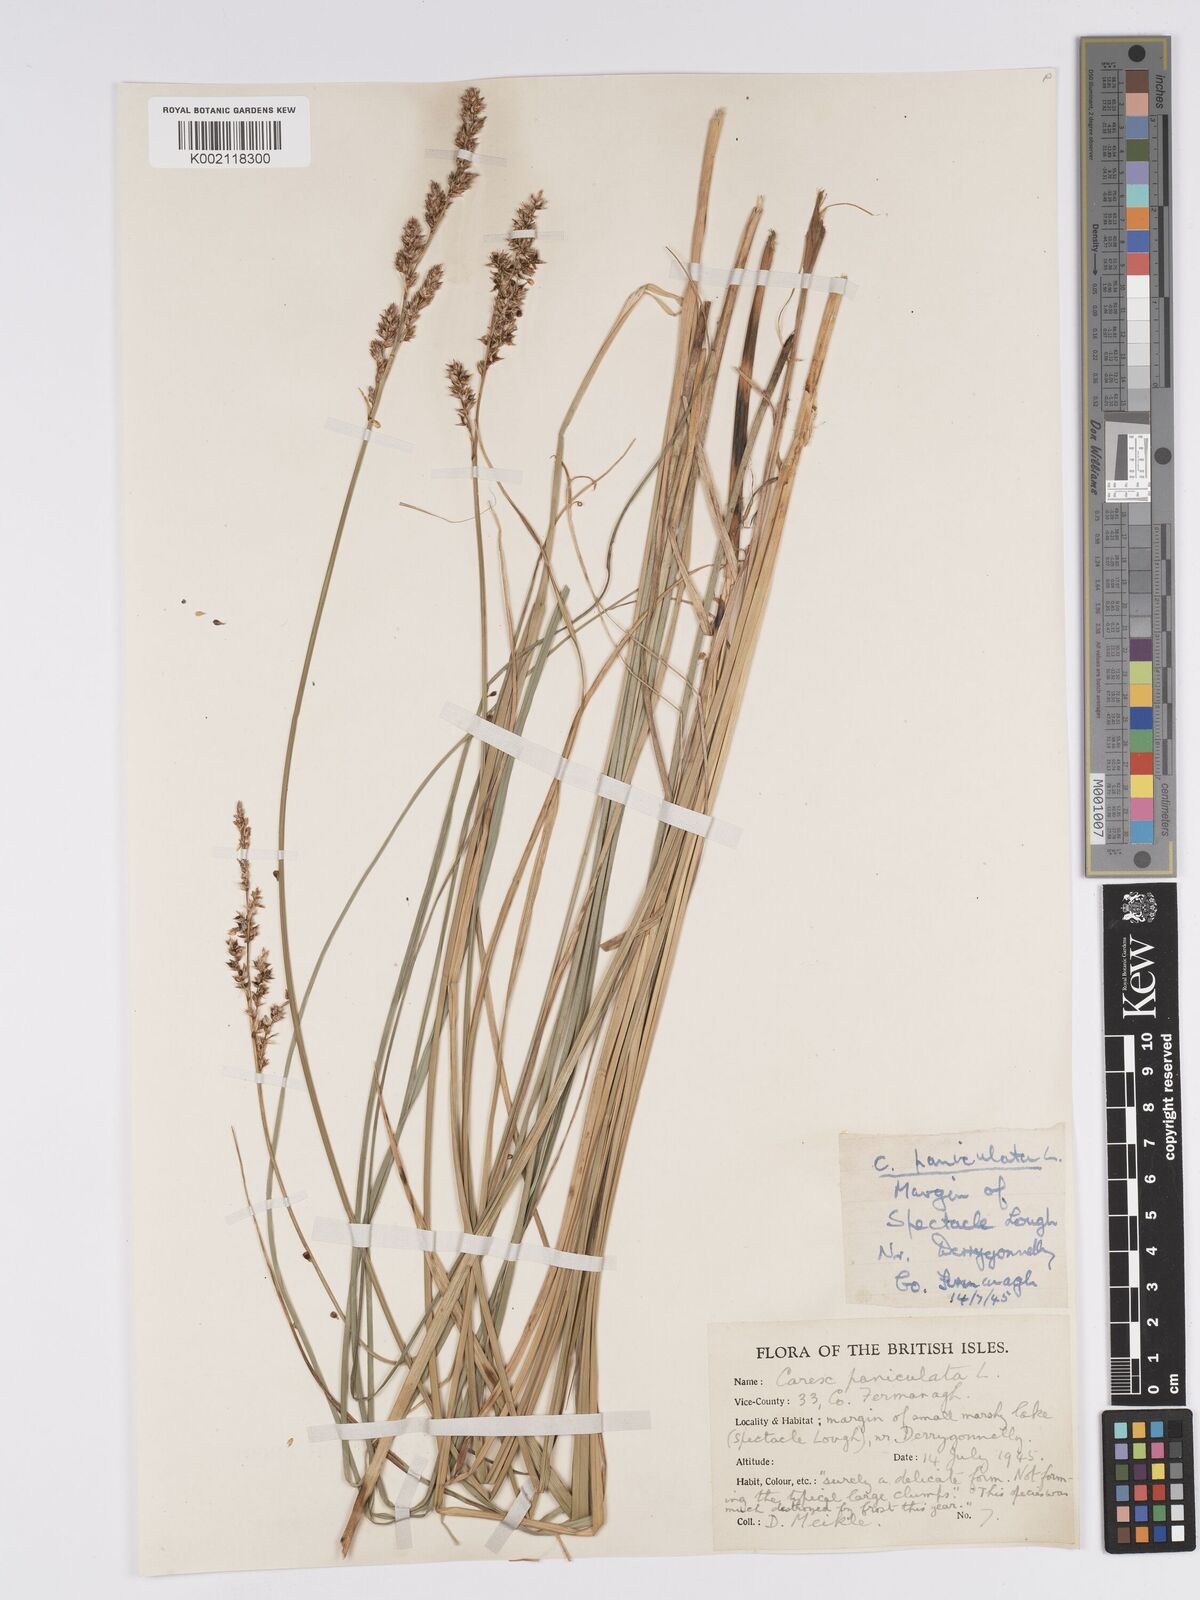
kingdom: Plantae
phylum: Tracheophyta
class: Liliopsida
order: Poales
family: Cyperaceae
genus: Carex
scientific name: Carex paniculata
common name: Greater tussock-sedge
